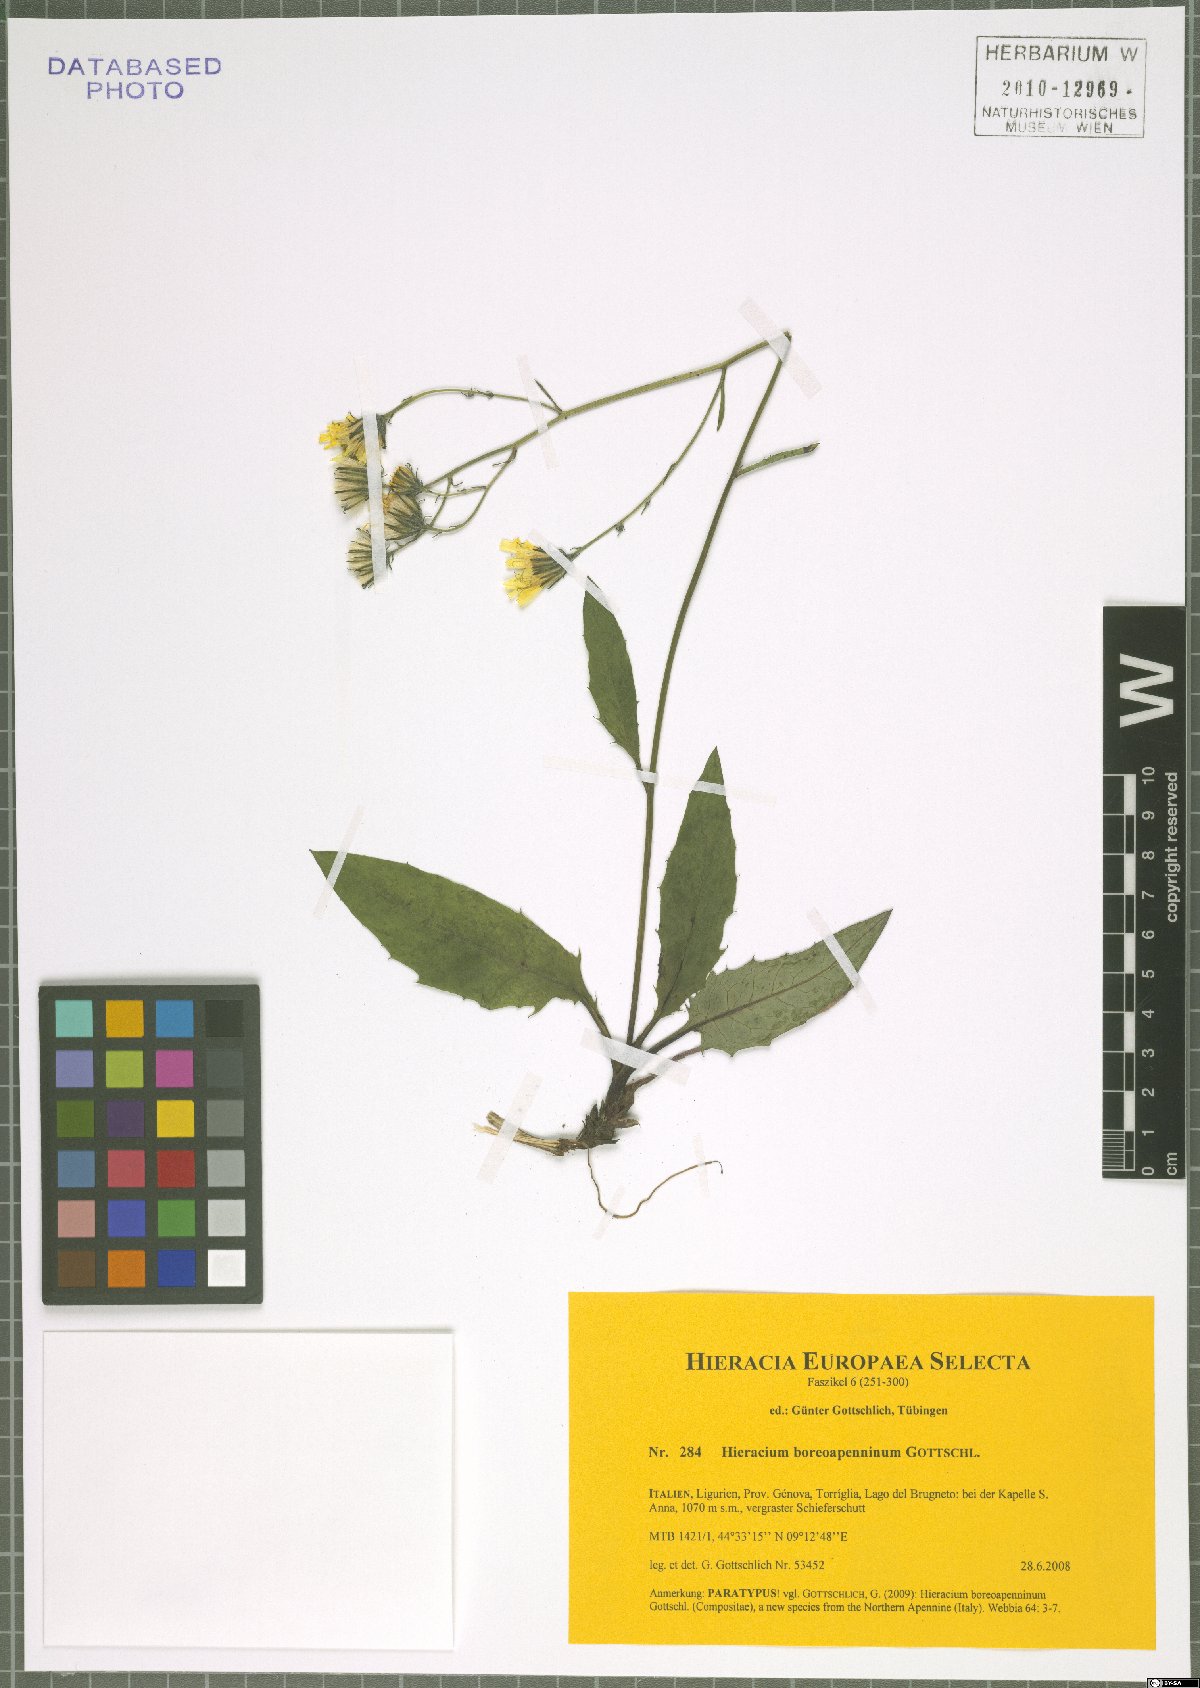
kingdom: Plantae
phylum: Tracheophyta
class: Magnoliopsida
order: Asterales
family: Asteraceae
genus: Hieracium
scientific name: Hieracium boreoapenninum
